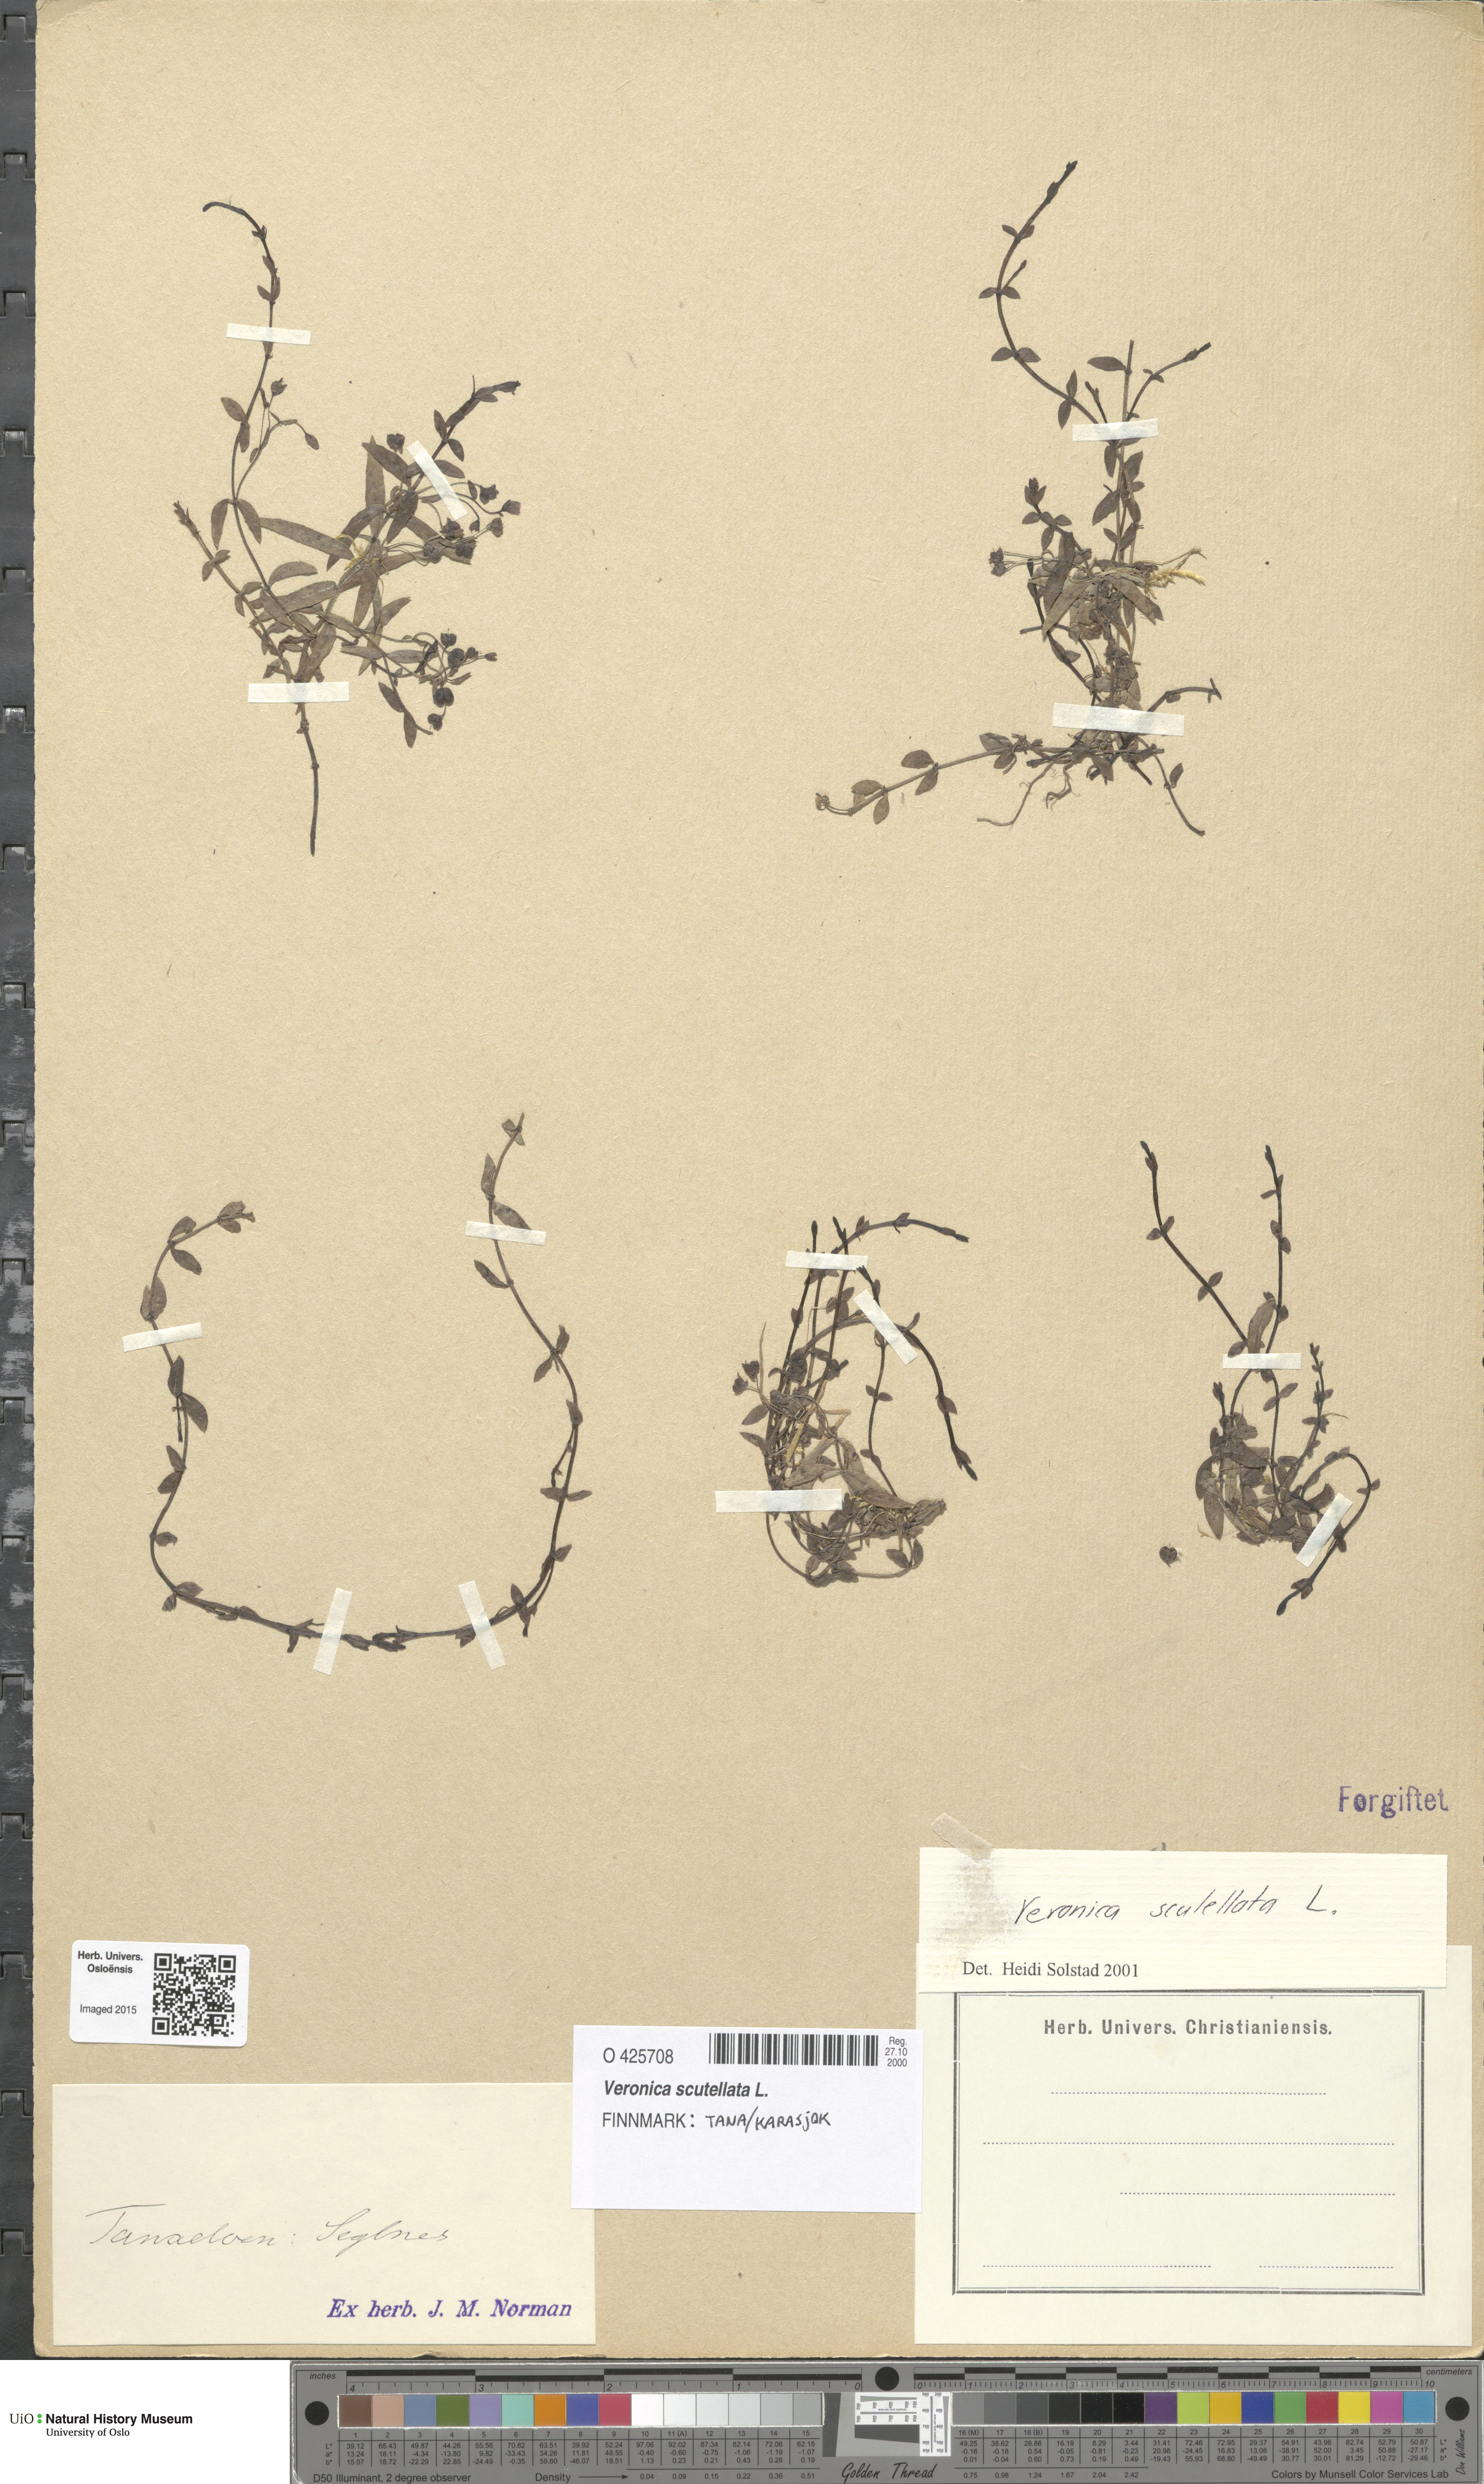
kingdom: Plantae
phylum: Tracheophyta
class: Magnoliopsida
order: Lamiales
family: Plantaginaceae
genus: Veronica
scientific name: Veronica scutellata
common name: Marsh speedwell
